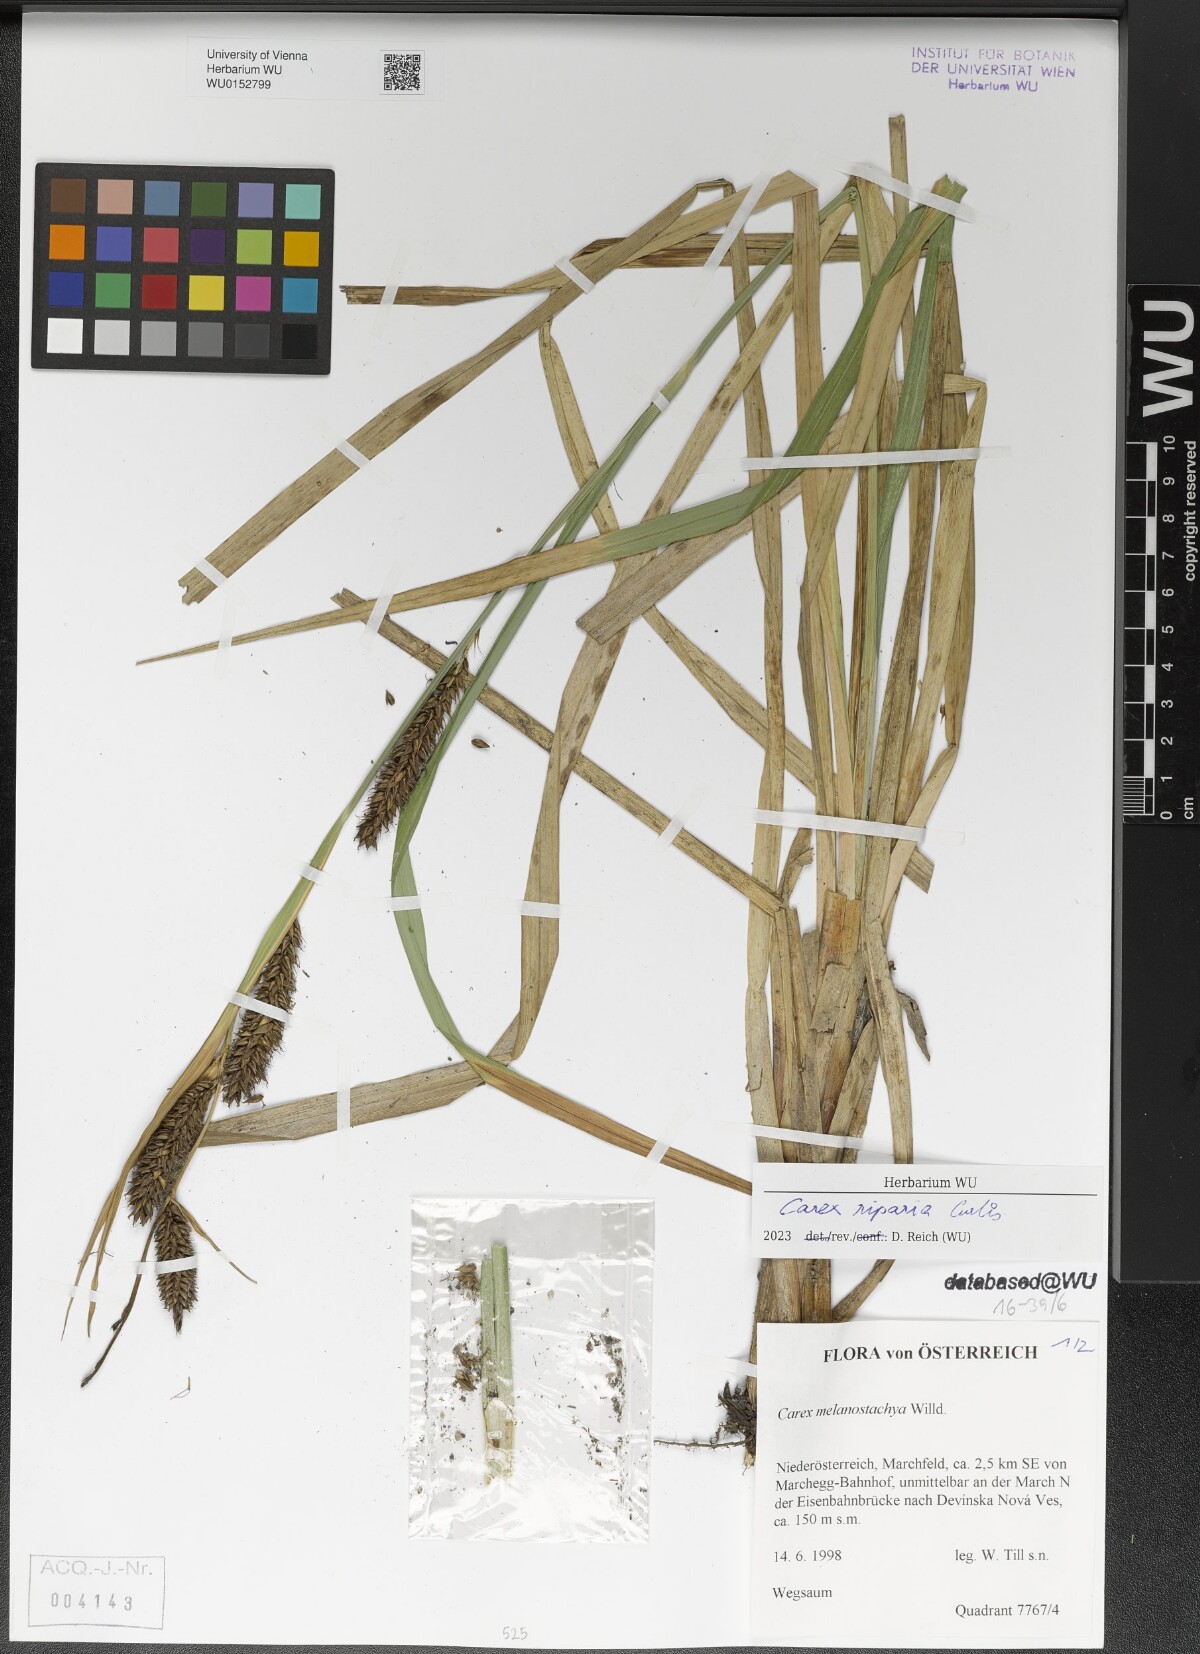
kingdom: Plantae
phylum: Tracheophyta
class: Liliopsida
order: Poales
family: Cyperaceae
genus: Carex
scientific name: Carex riparia
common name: Greater pond-sedge
